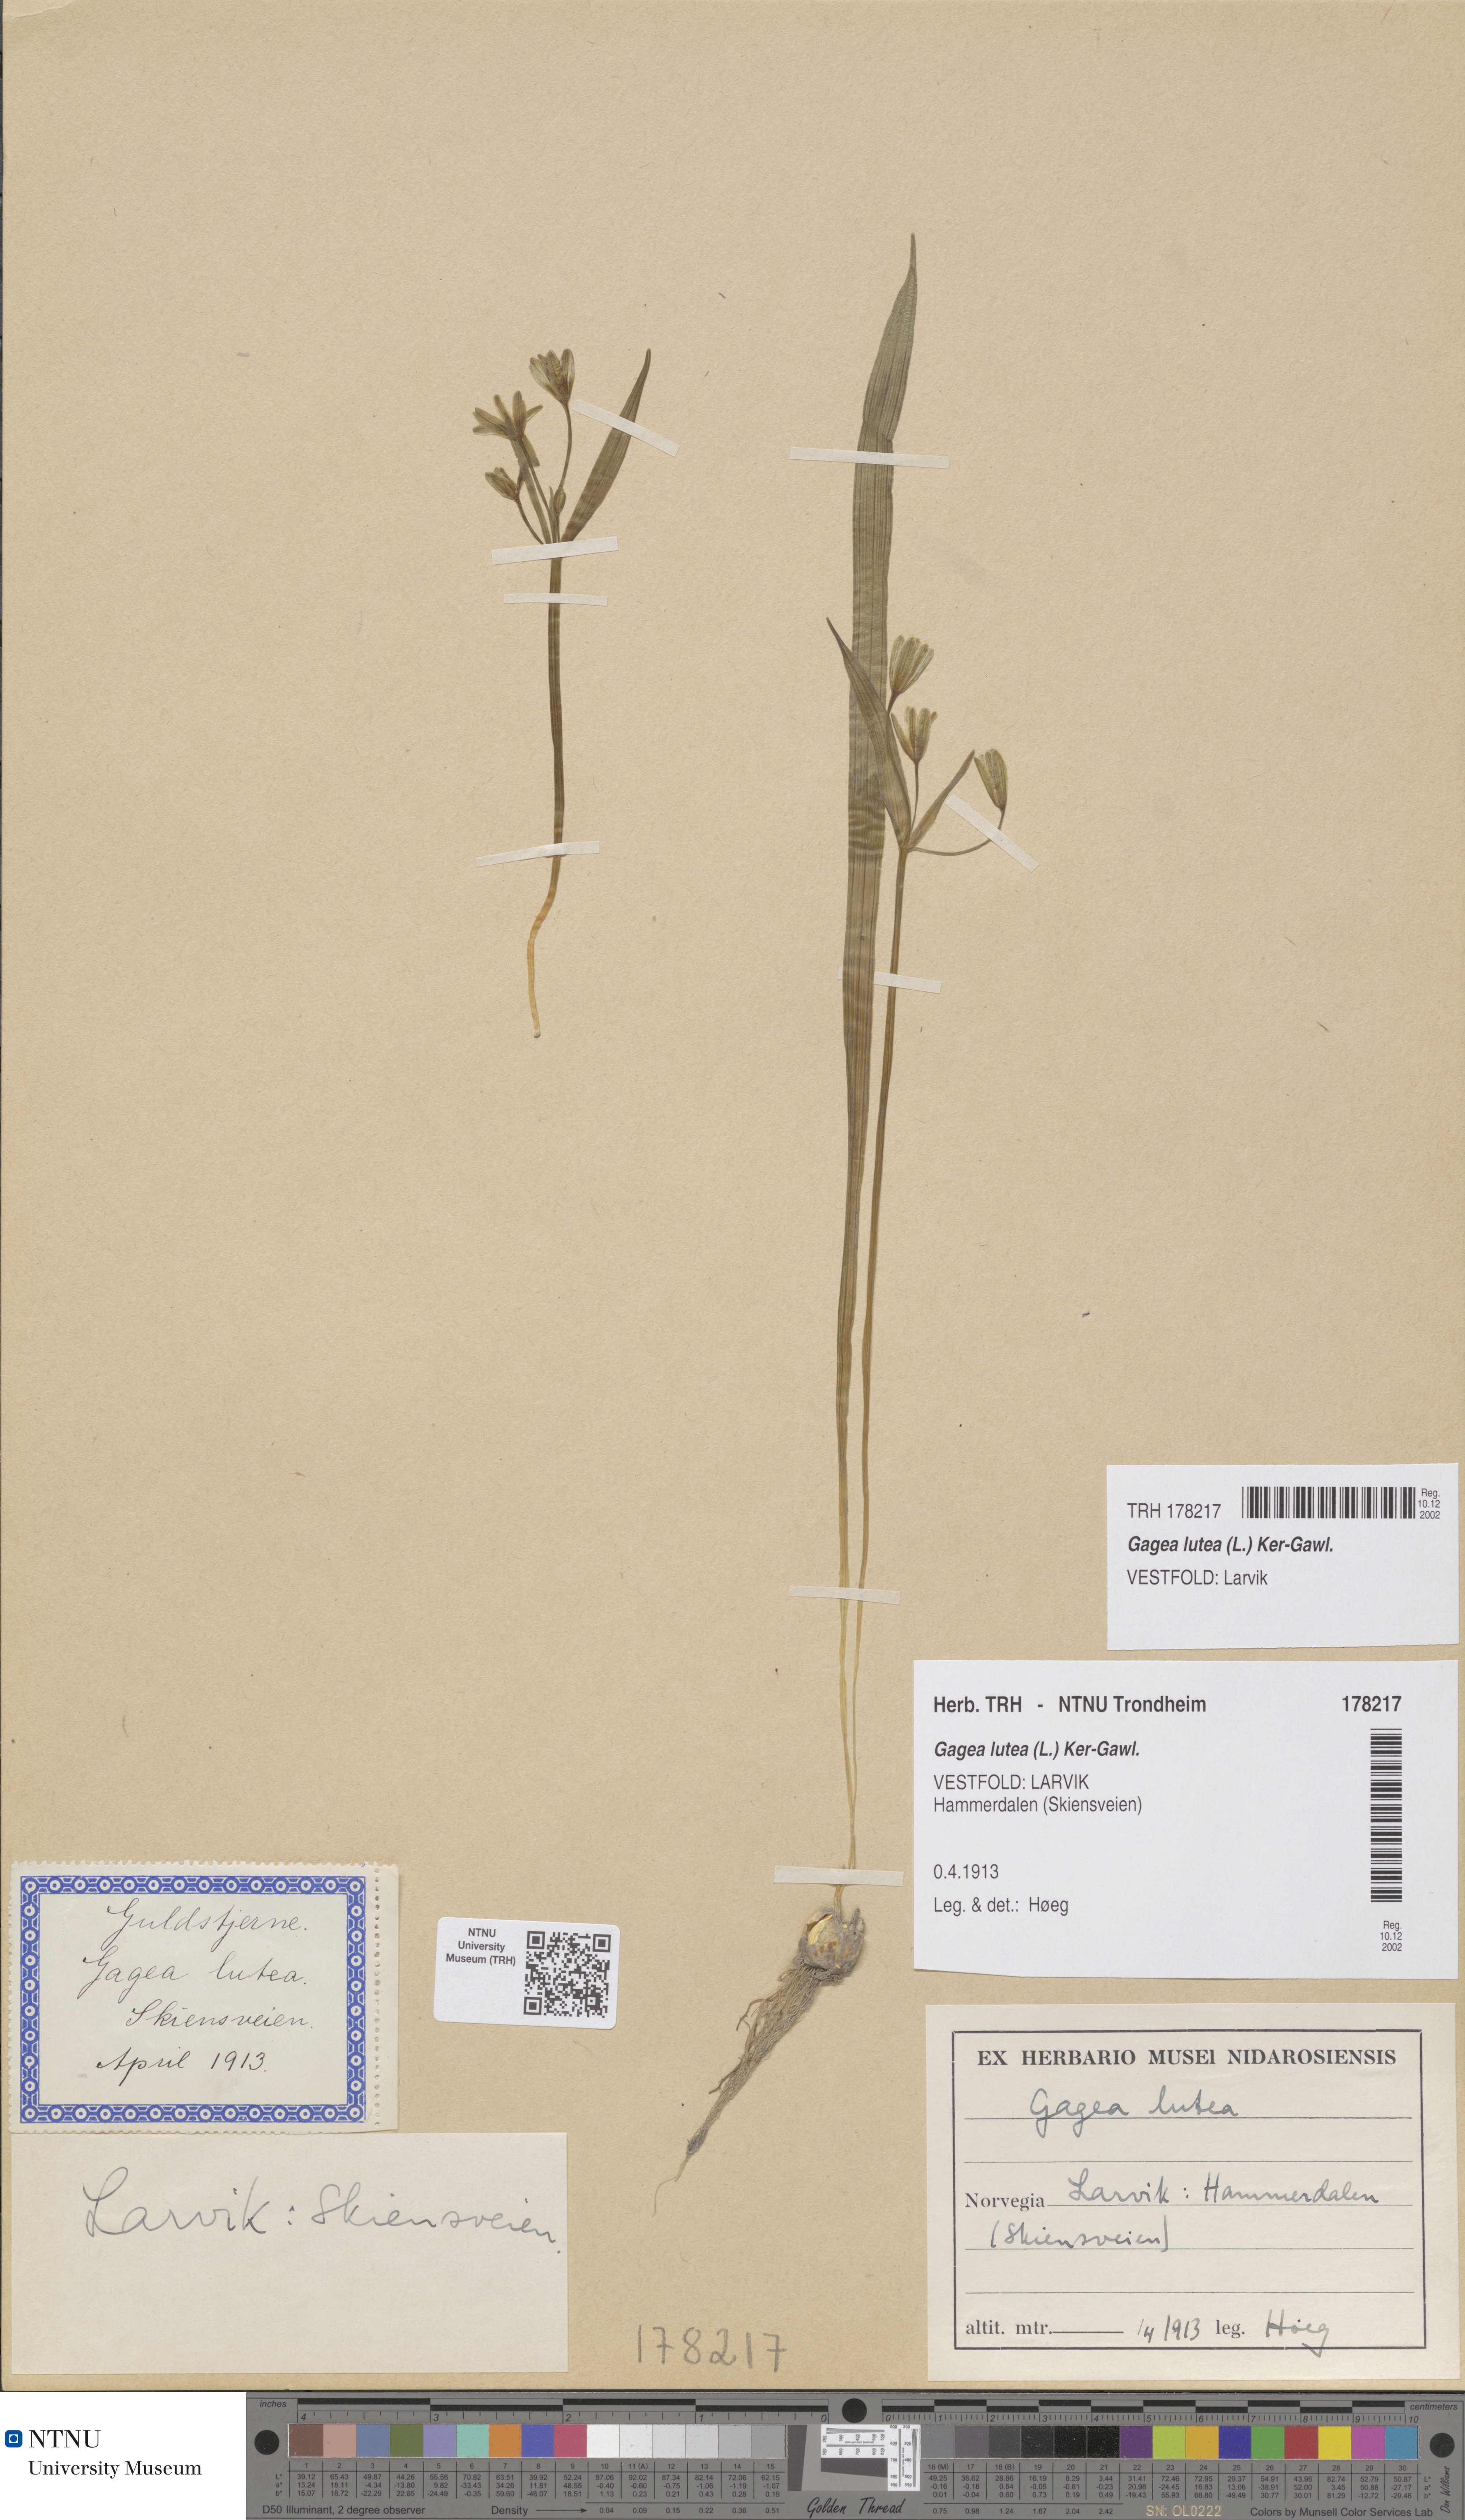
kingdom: Plantae
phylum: Tracheophyta
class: Liliopsida
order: Liliales
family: Liliaceae
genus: Gagea
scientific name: Gagea lutea
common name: Yellow star-of-bethlehem
